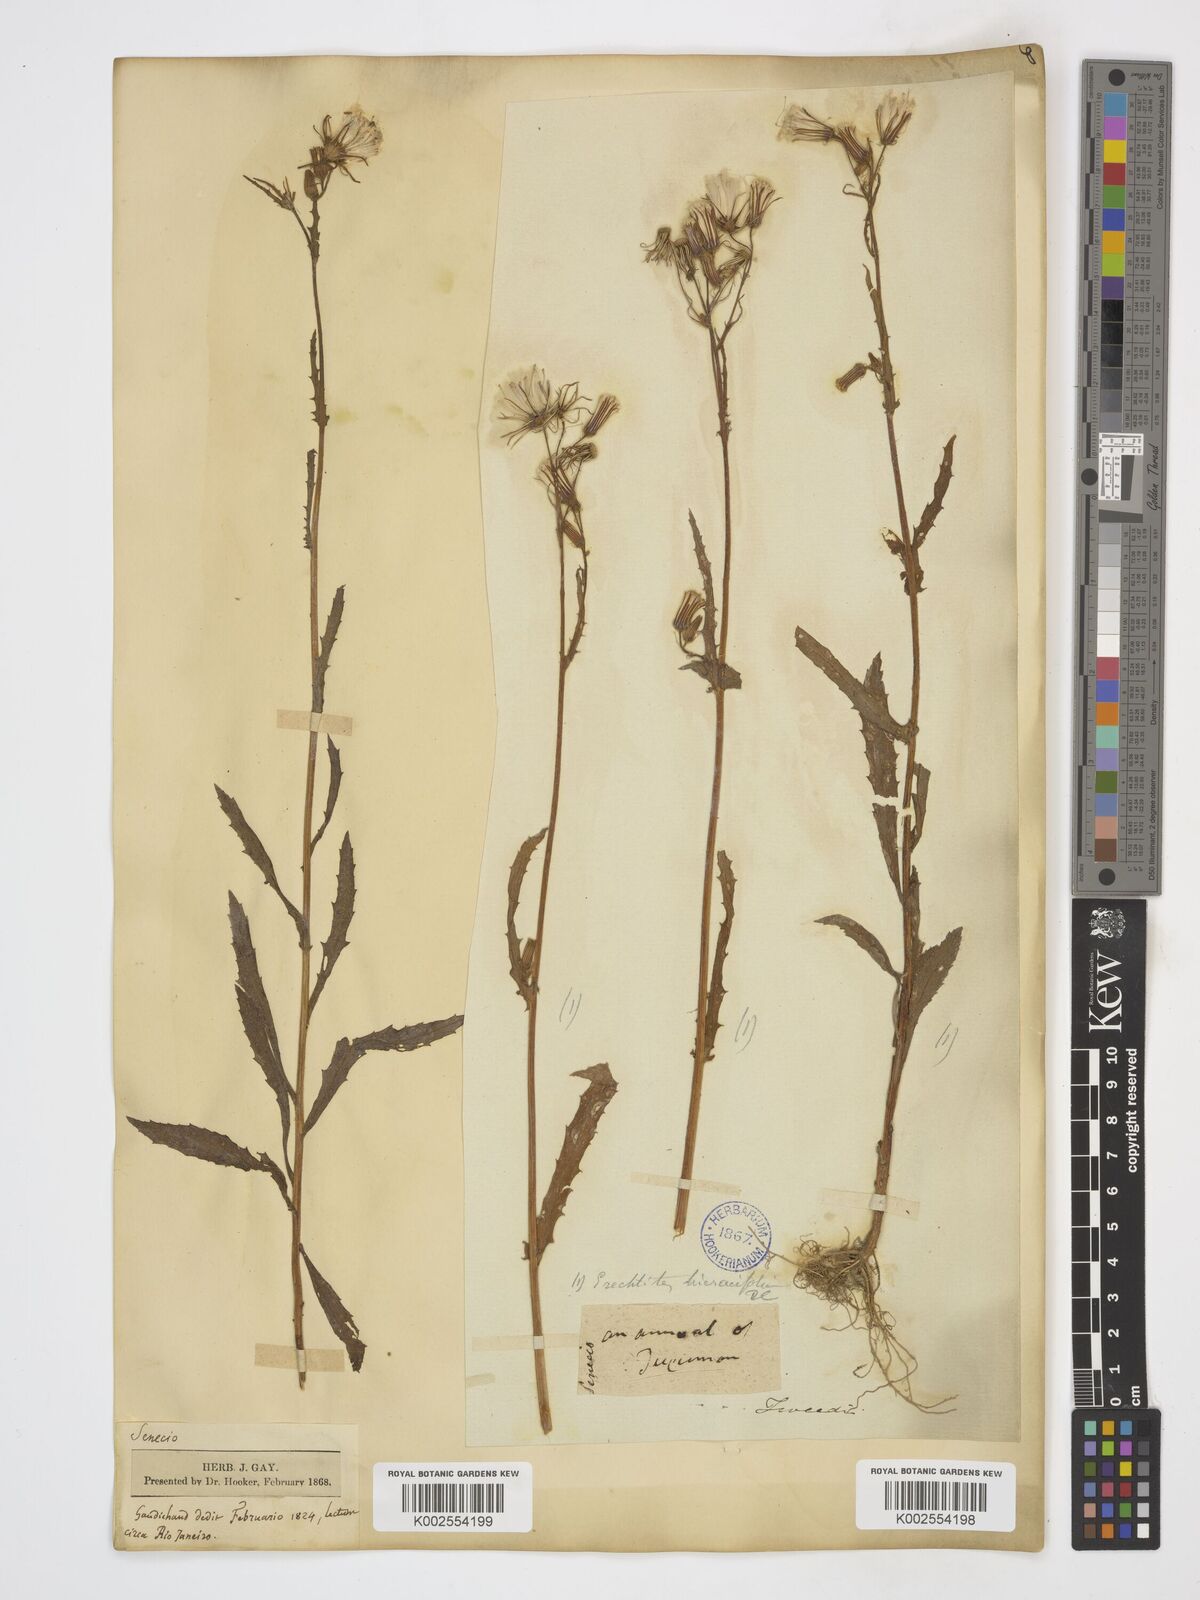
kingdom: Plantae
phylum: Tracheophyta
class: Magnoliopsida
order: Asterales
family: Asteraceae
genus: Erechtites
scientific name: Erechtites hieraciifolius
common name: American burnweed
